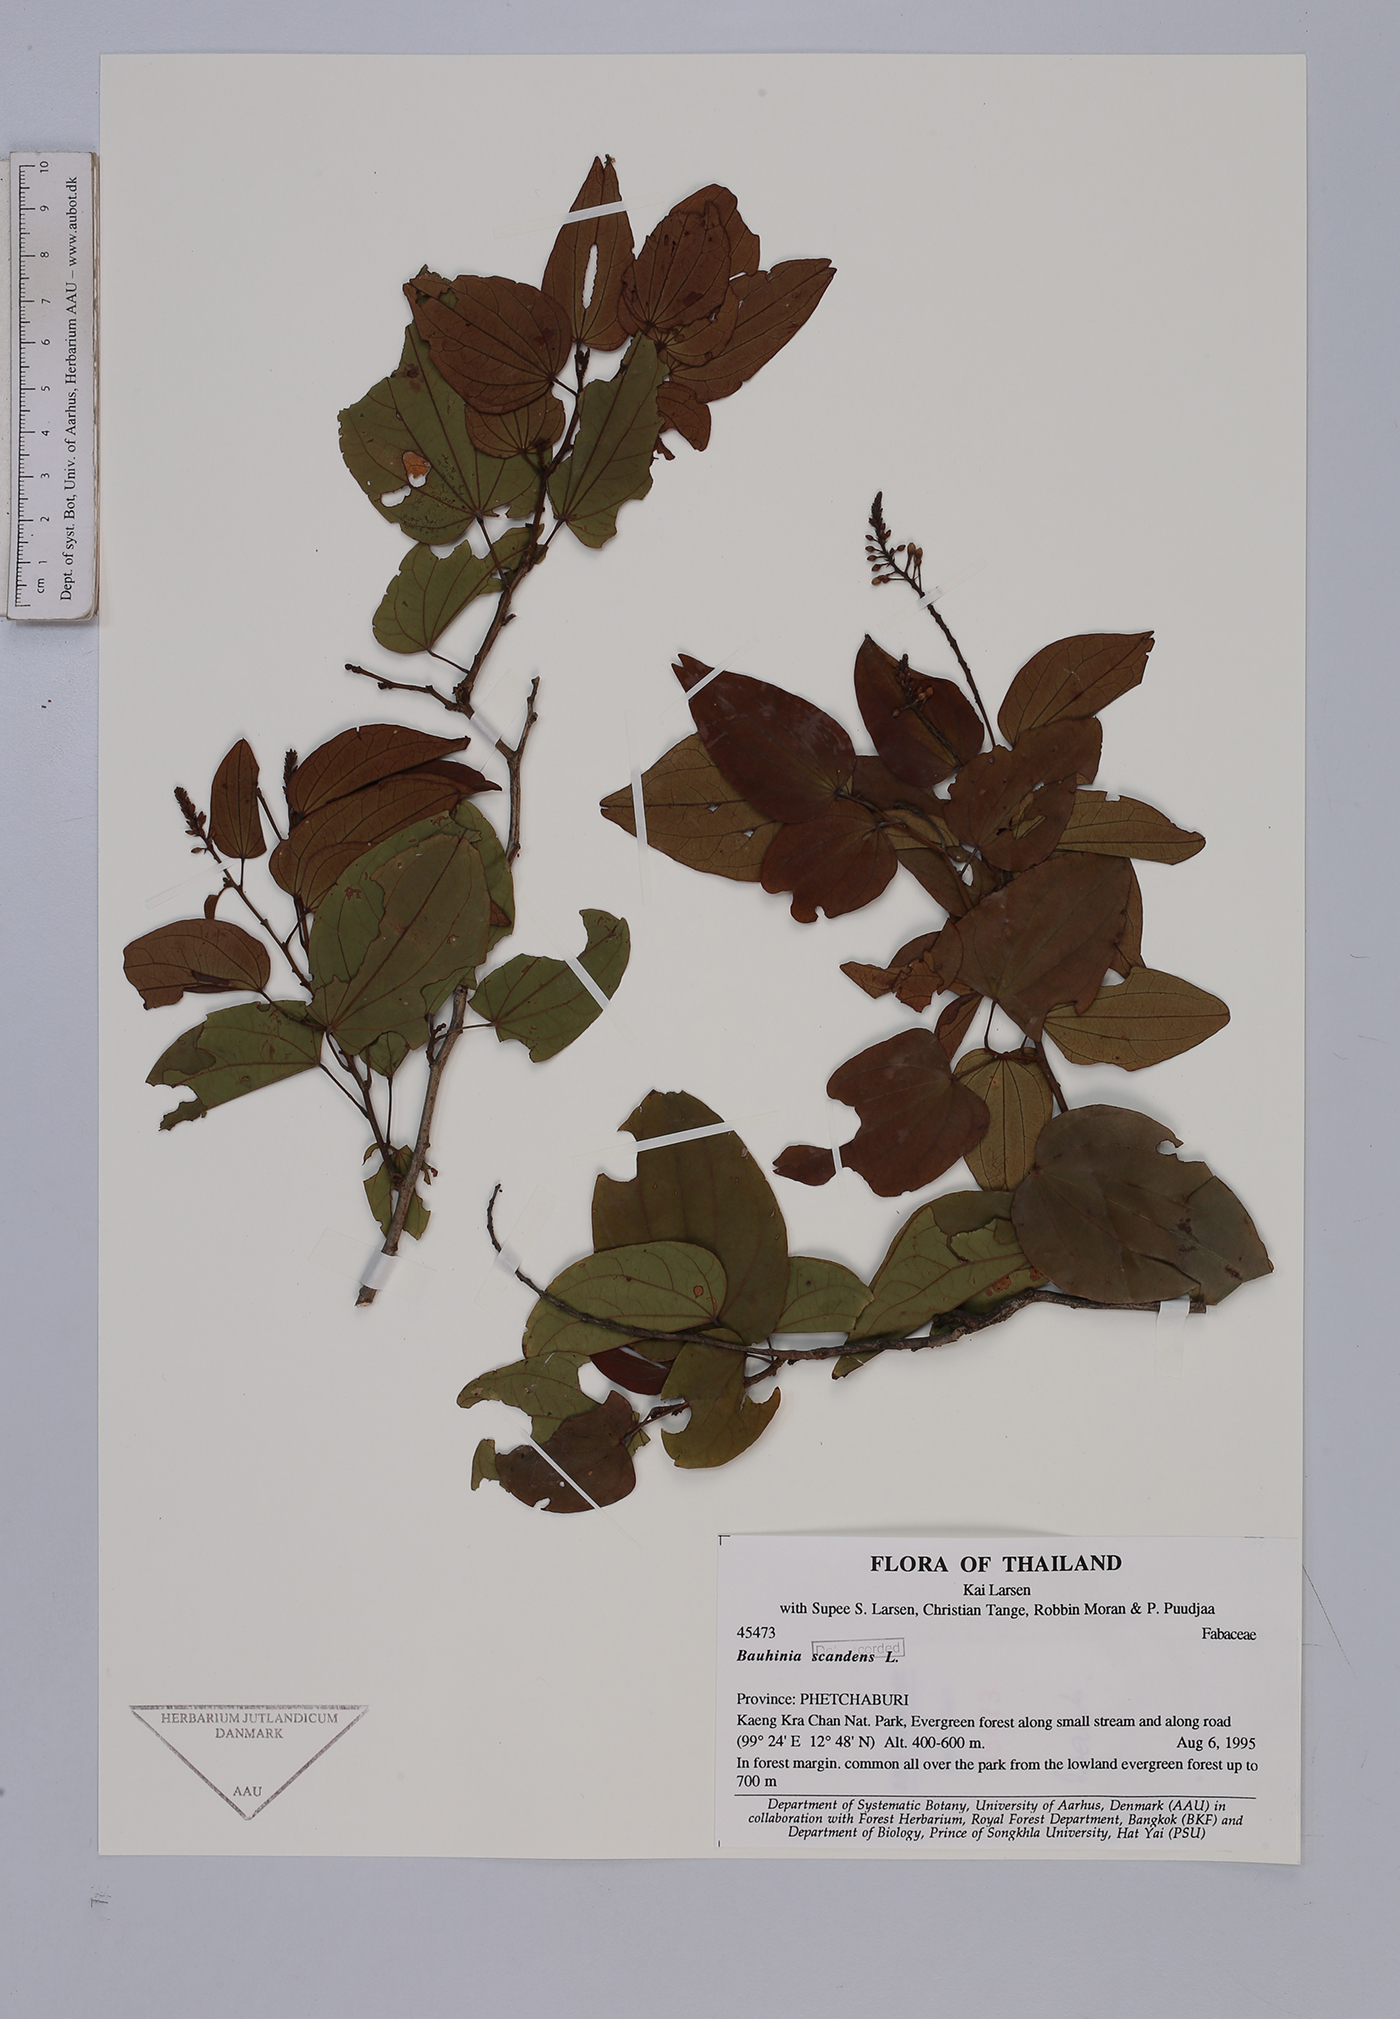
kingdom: Plantae
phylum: Tracheophyta
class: Magnoliopsida
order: Fabales
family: Fabaceae
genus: Phanera
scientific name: Phanera scandens
